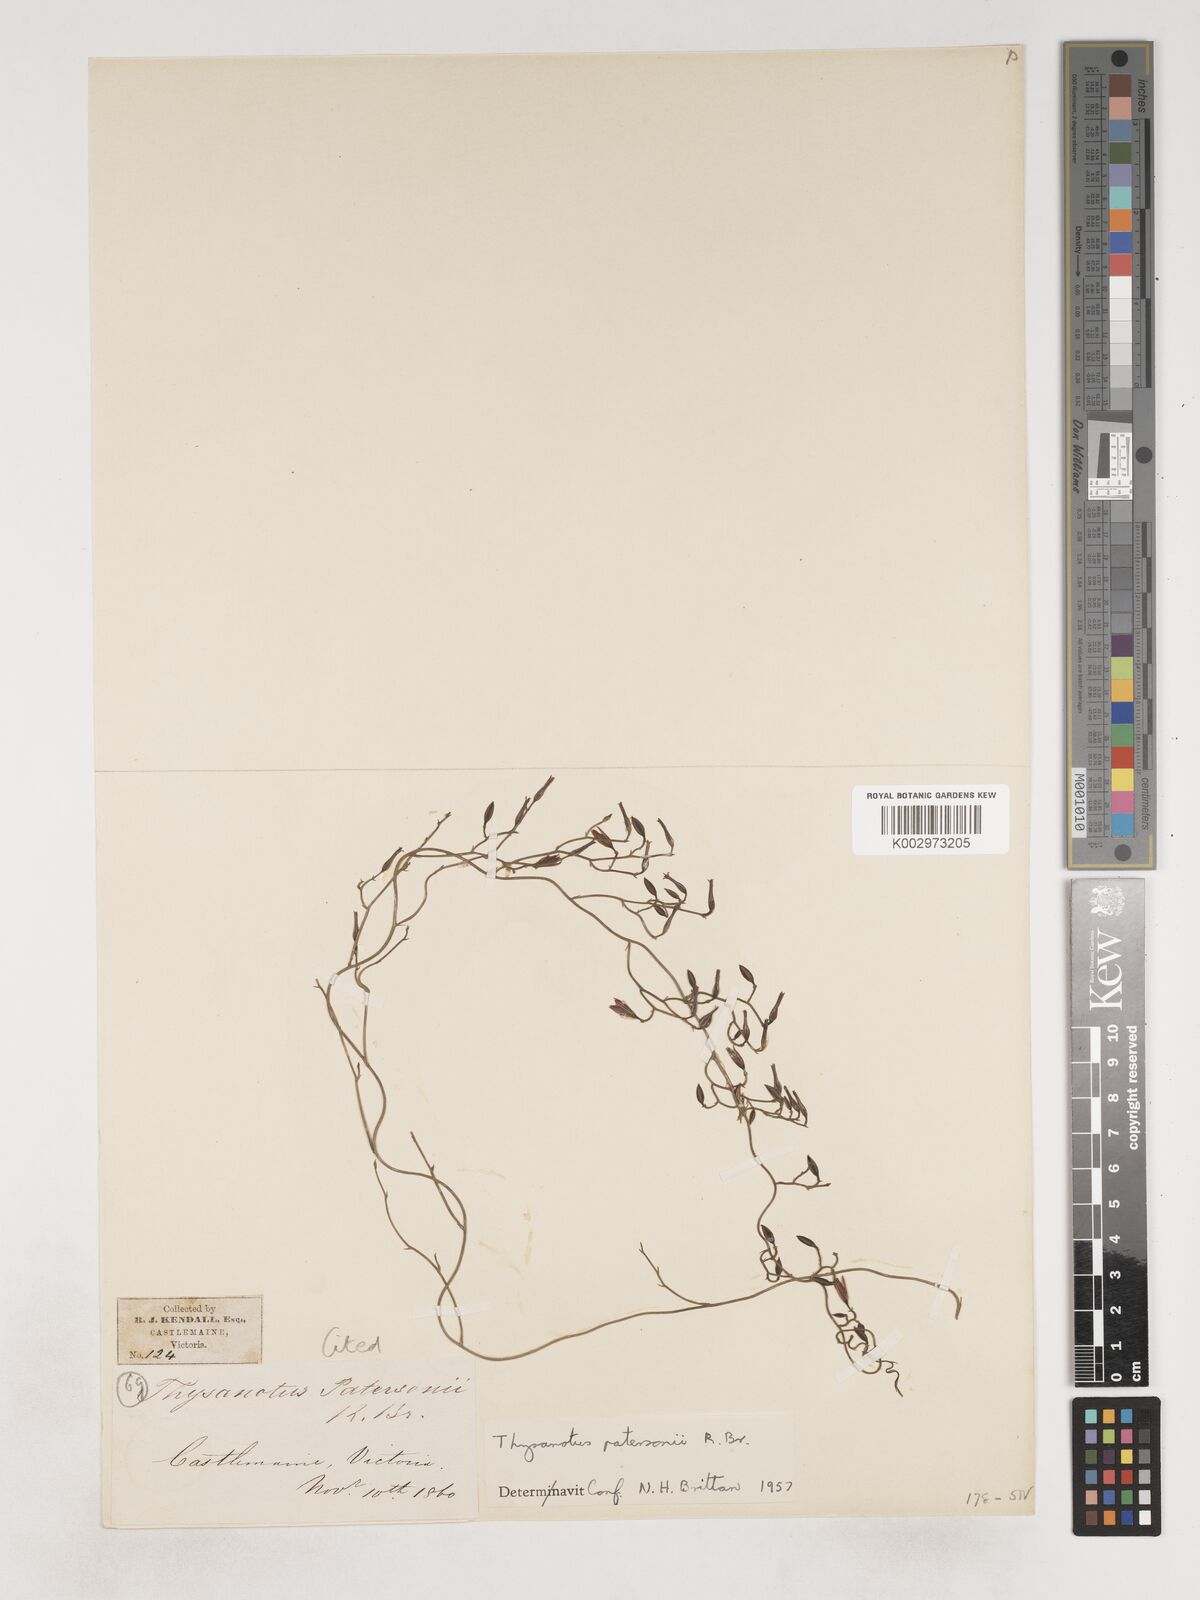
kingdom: Plantae
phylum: Tracheophyta
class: Liliopsida
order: Asparagales
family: Asparagaceae
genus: Thysanotus
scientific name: Thysanotus patersonii
